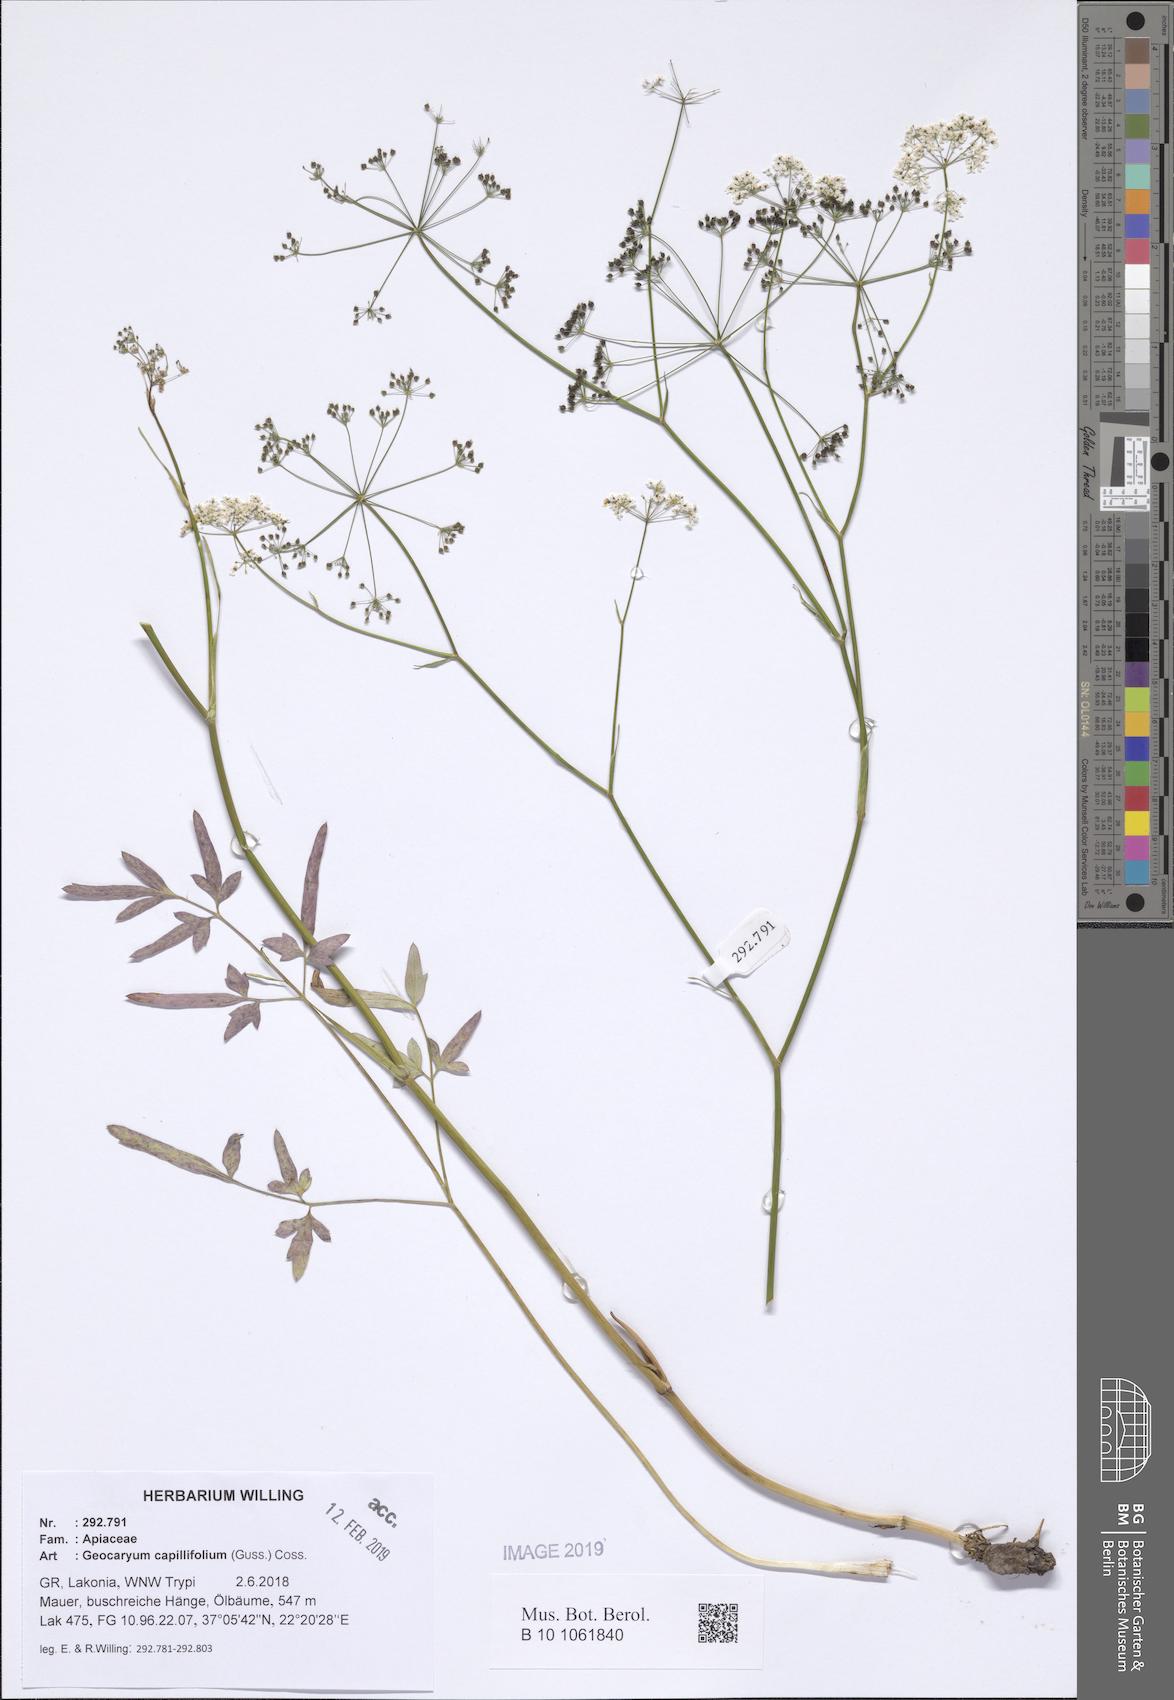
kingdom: Plantae
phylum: Tracheophyta
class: Magnoliopsida
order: Apiales
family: Apiaceae
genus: Geocaryum
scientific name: Geocaryum capillifolium
